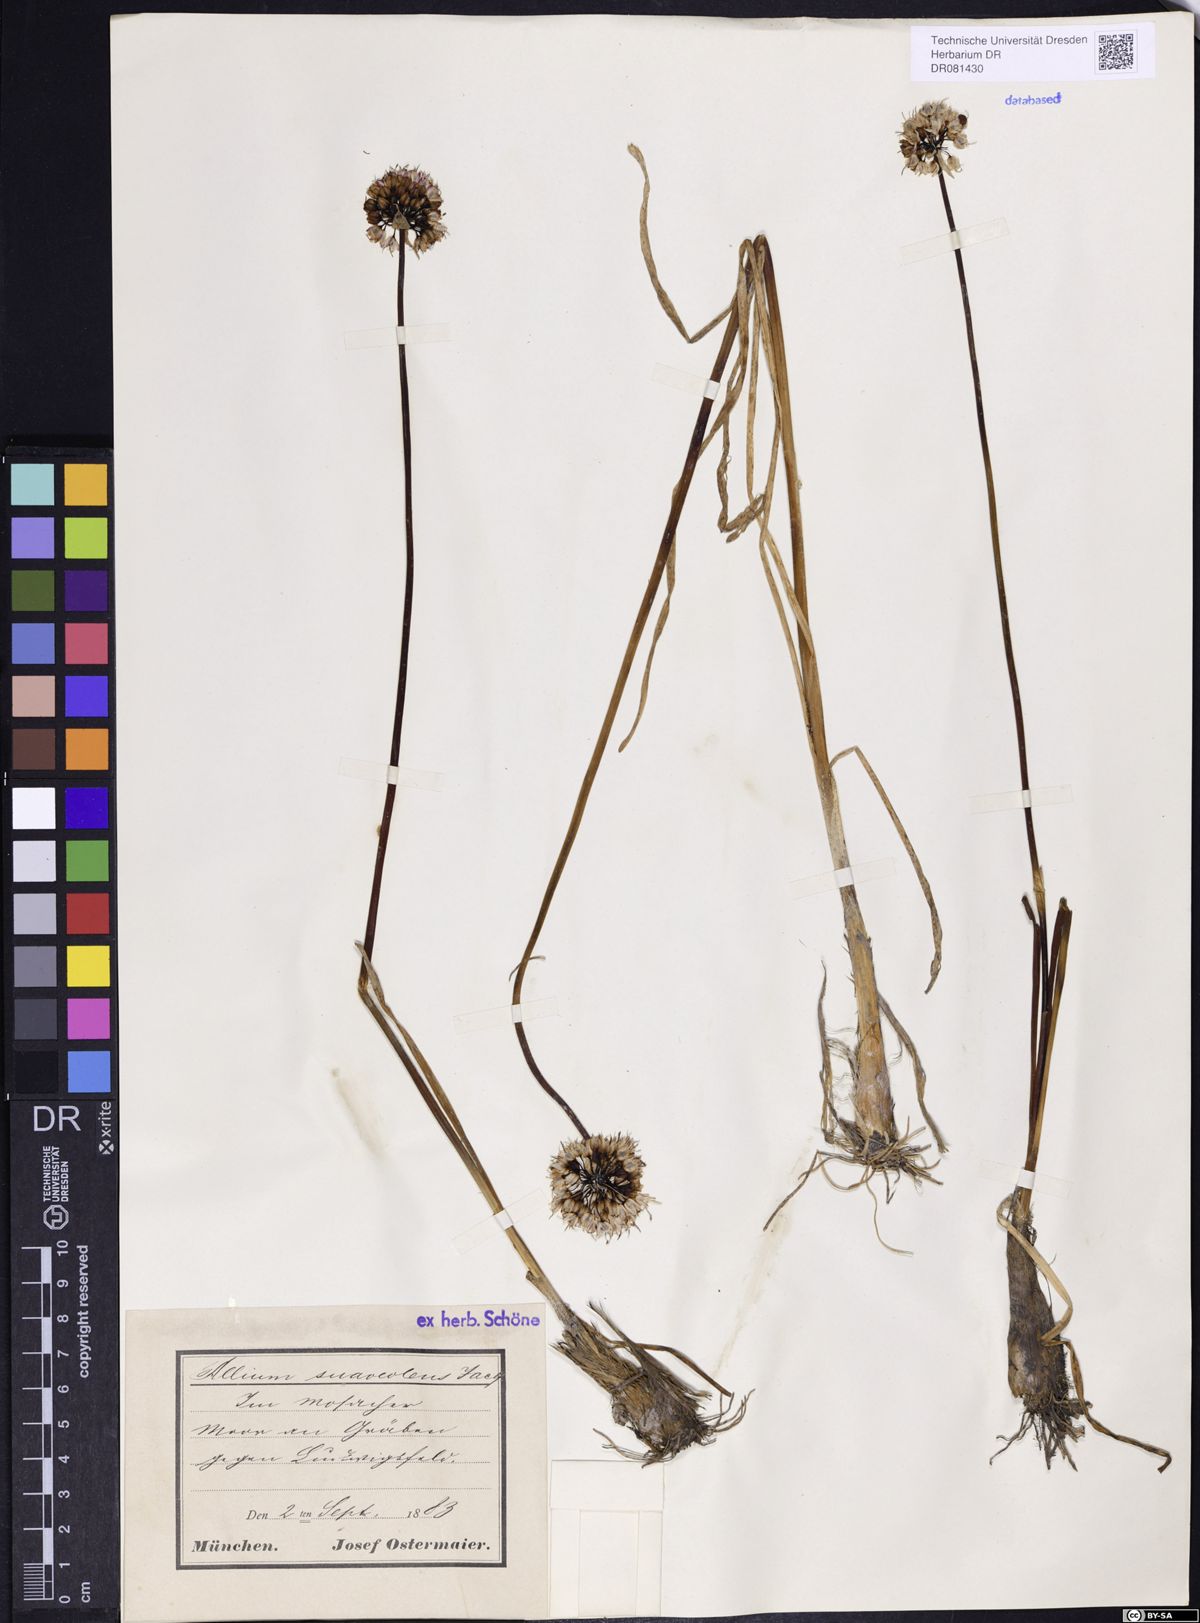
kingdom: Plantae
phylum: Tracheophyta
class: Liliopsida
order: Asparagales
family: Amaryllidaceae
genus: Allium
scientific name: Allium suaveolens
